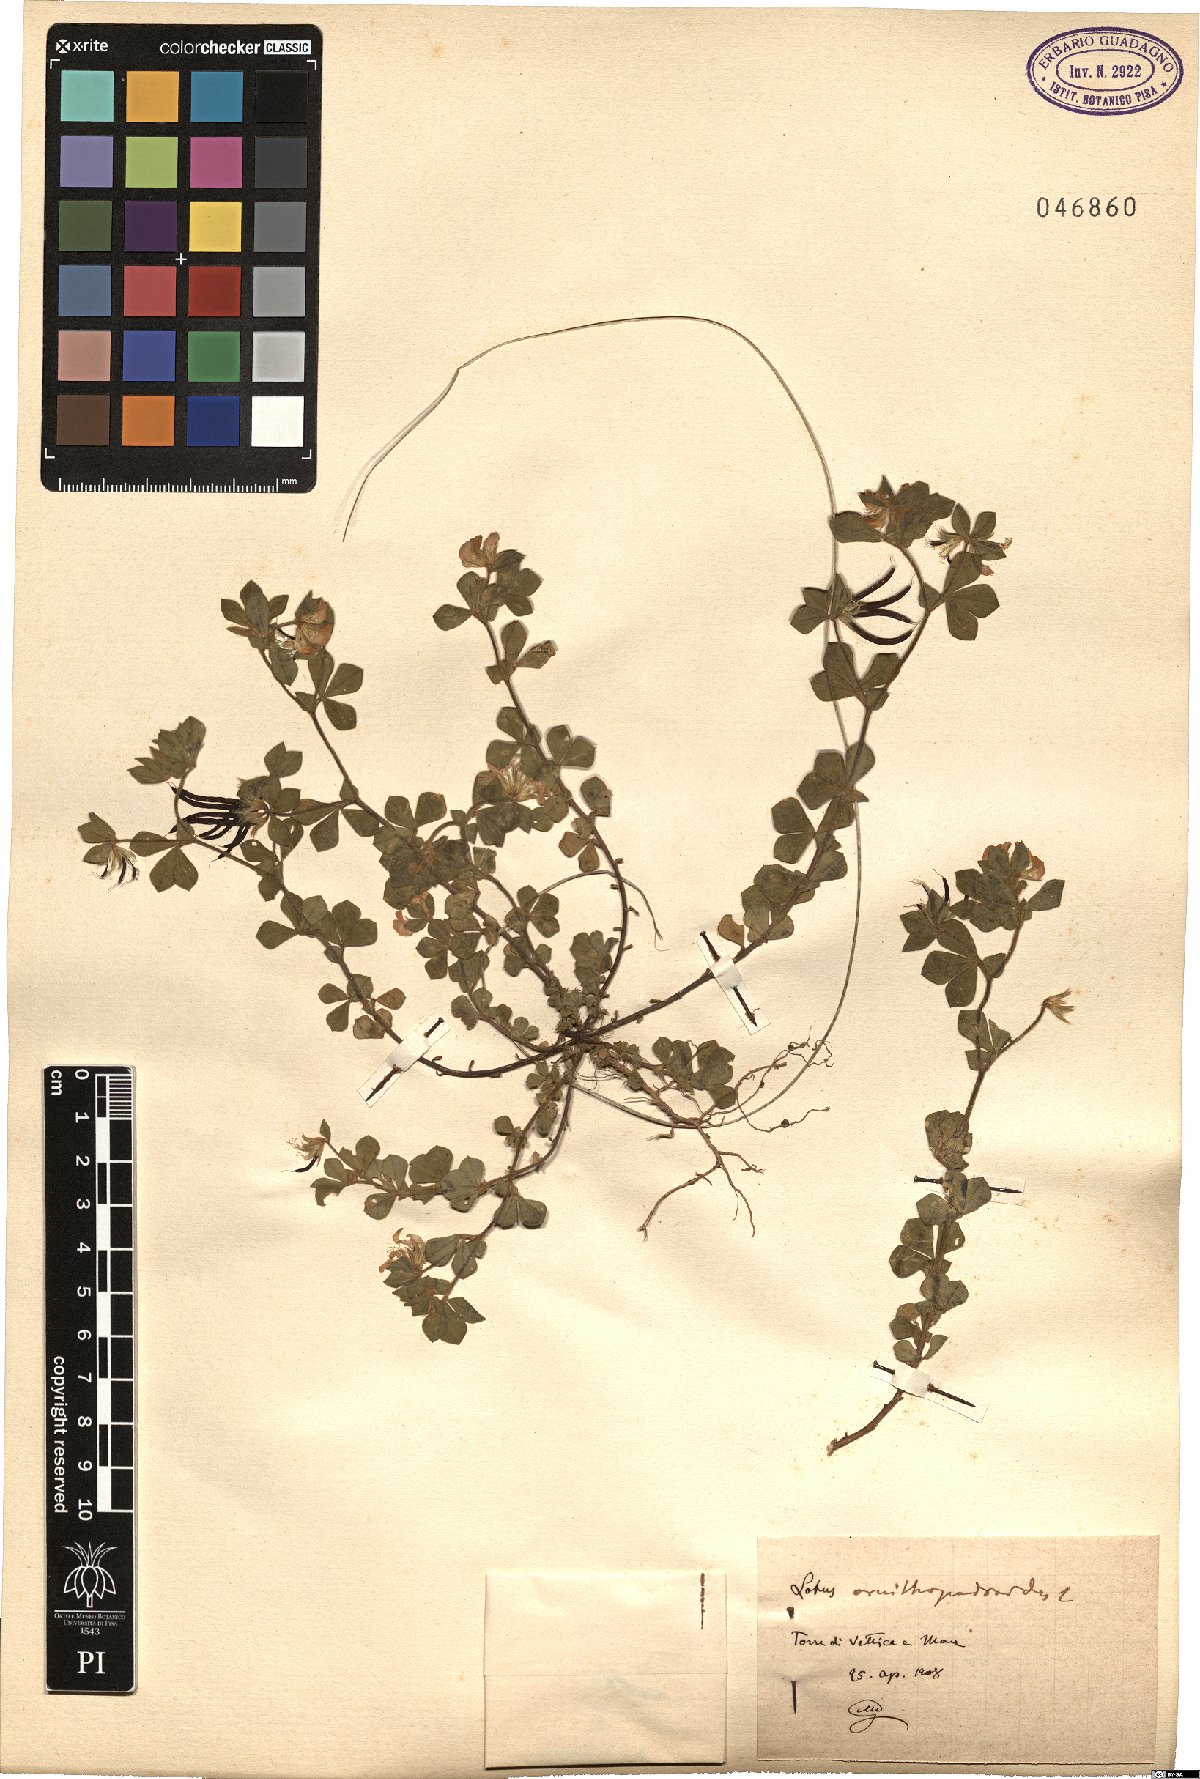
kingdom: Plantae
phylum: Tracheophyta
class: Magnoliopsida
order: Fabales
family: Fabaceae
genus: Lotus
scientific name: Lotus ornithopodioides
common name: Southern bird's-foot trefoil
